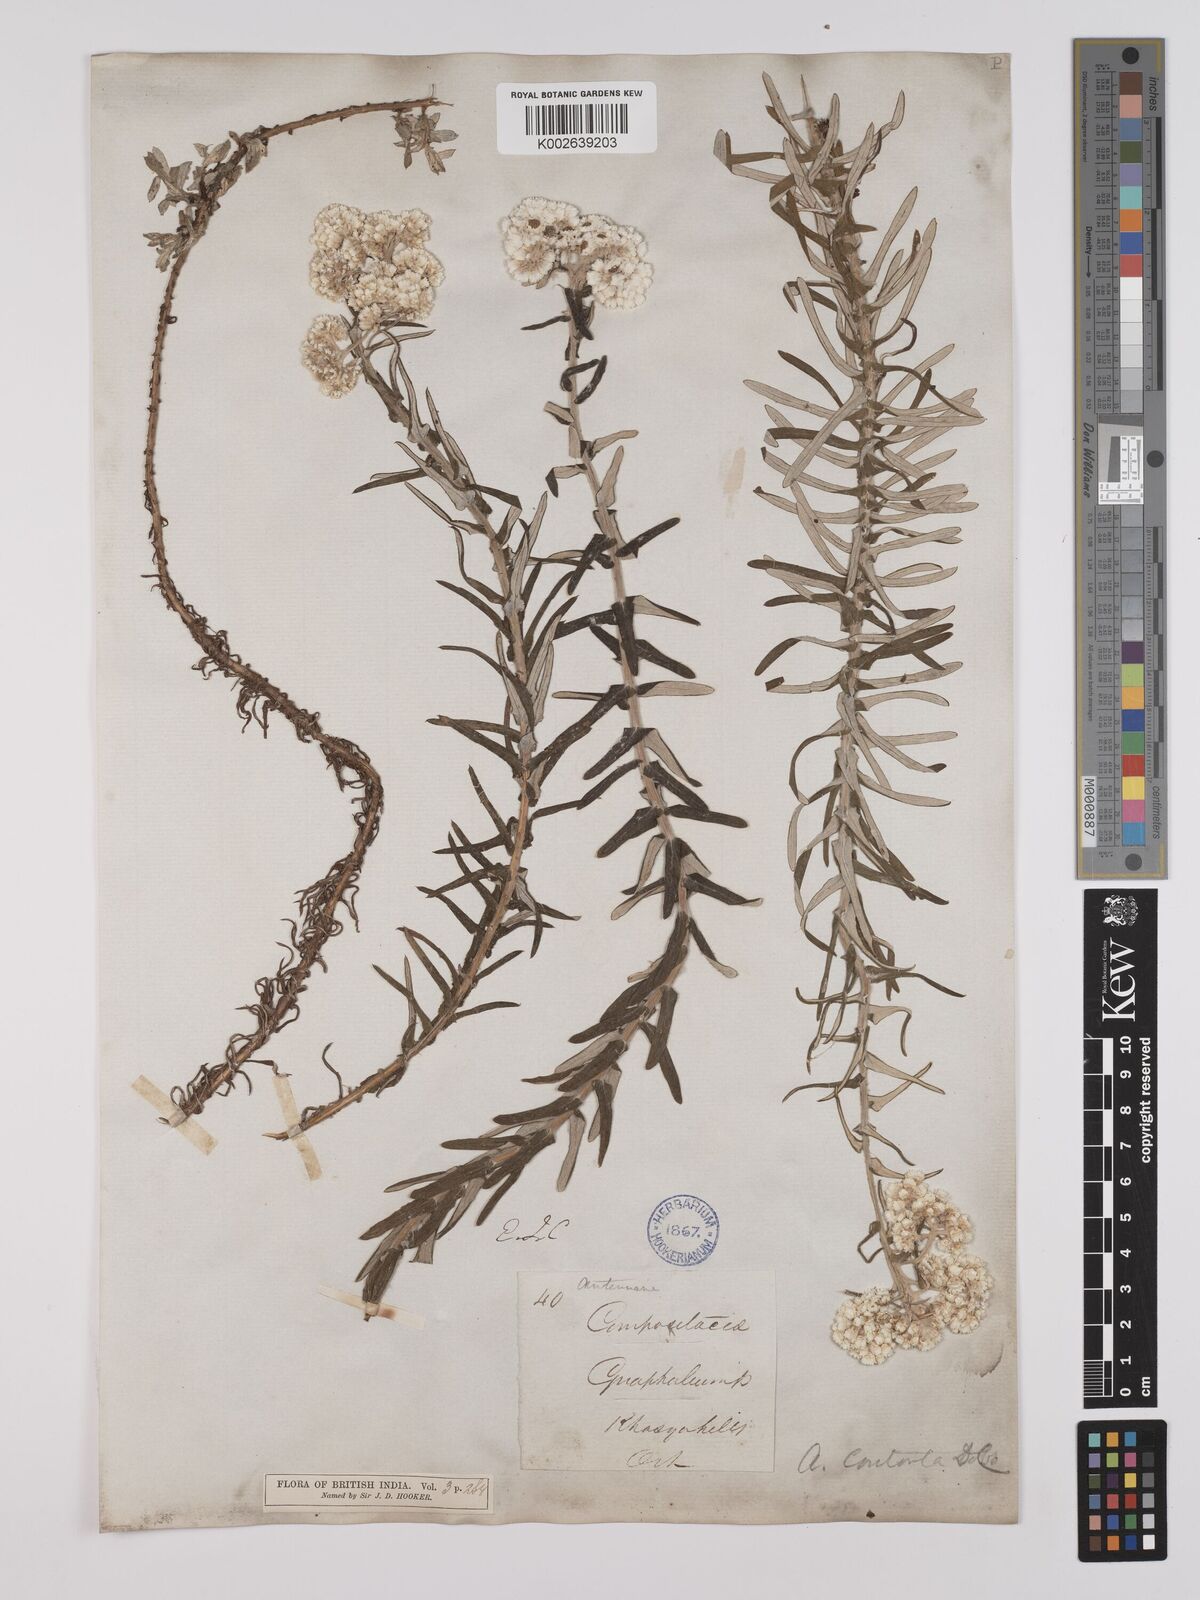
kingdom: Plantae
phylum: Tracheophyta
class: Magnoliopsida
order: Asterales
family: Asteraceae
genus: Anaphalis
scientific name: Anaphalis contorta
